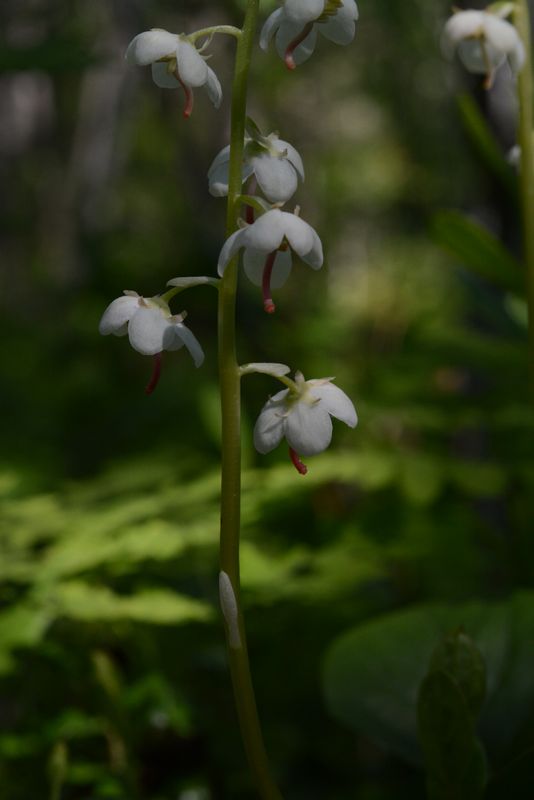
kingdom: Plantae
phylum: Tracheophyta
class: Magnoliopsida
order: Ericales
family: Ericaceae
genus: Pyrola
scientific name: Pyrola rotundifolia
